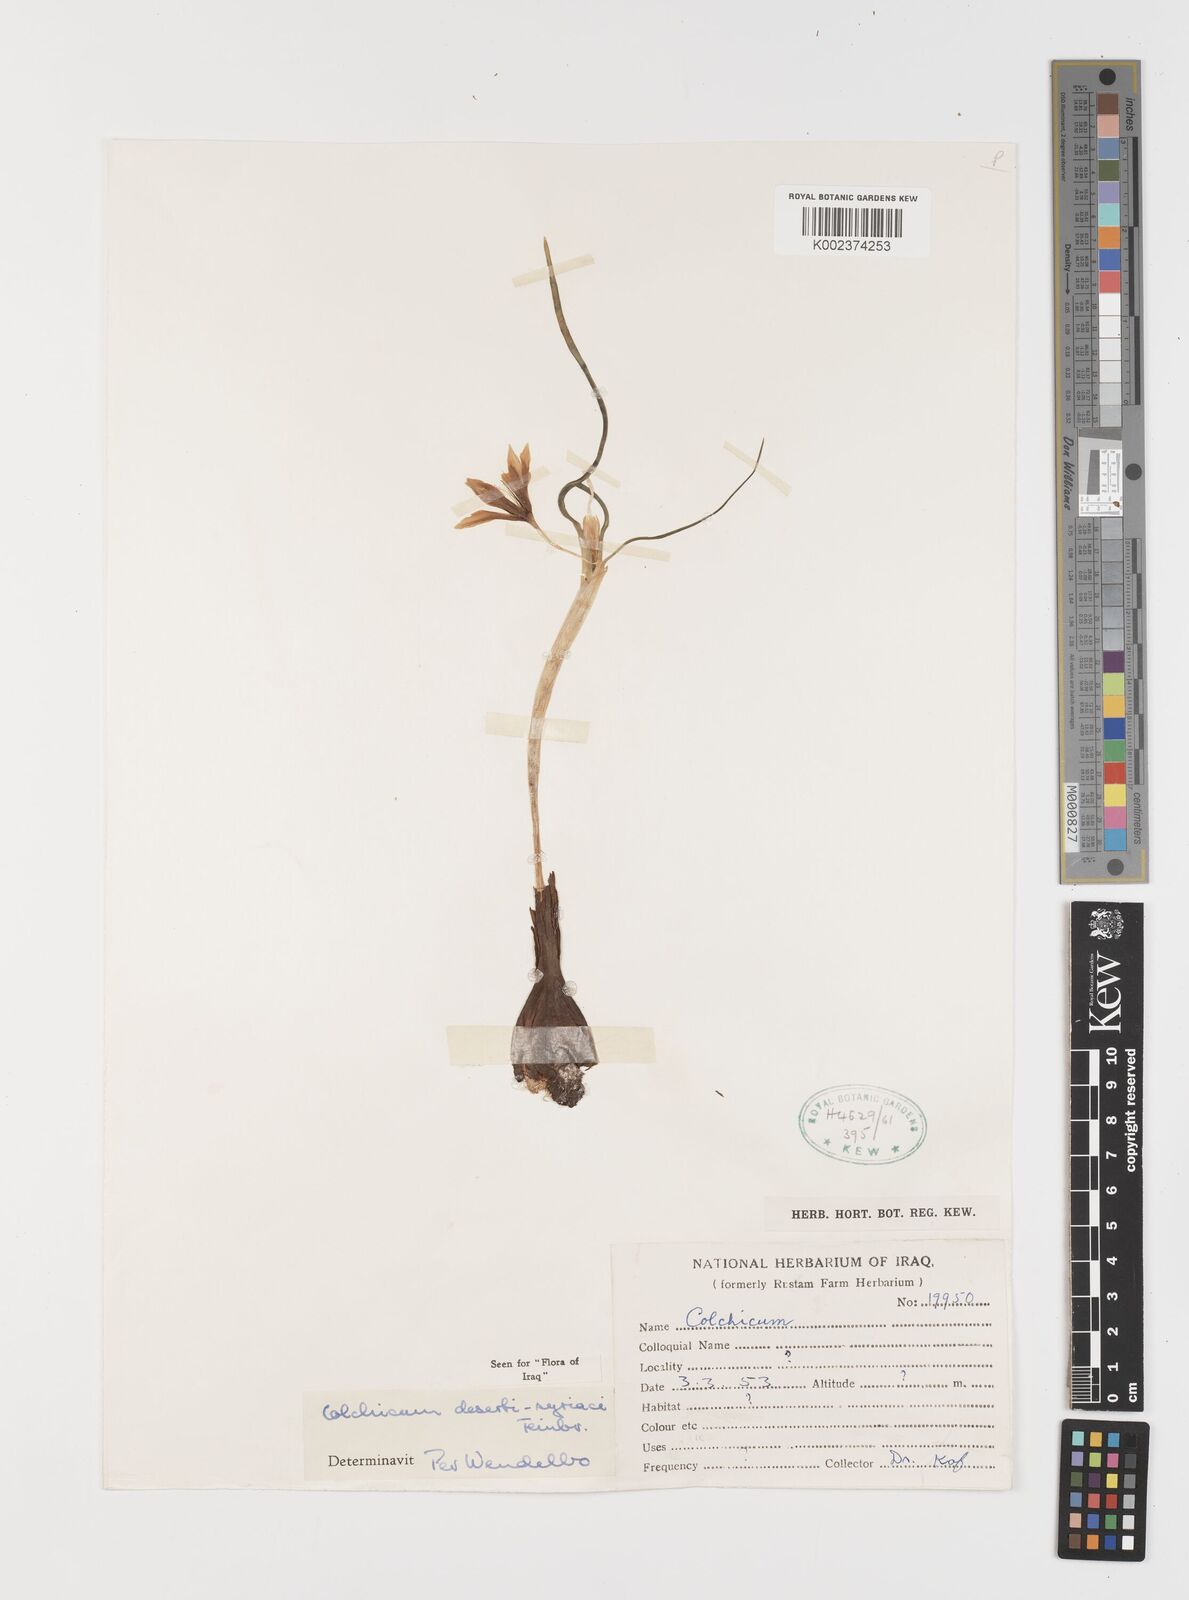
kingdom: Plantae
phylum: Tracheophyta
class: Liliopsida
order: Liliales
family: Colchicaceae
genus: Colchicum
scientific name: Colchicum schimperi
